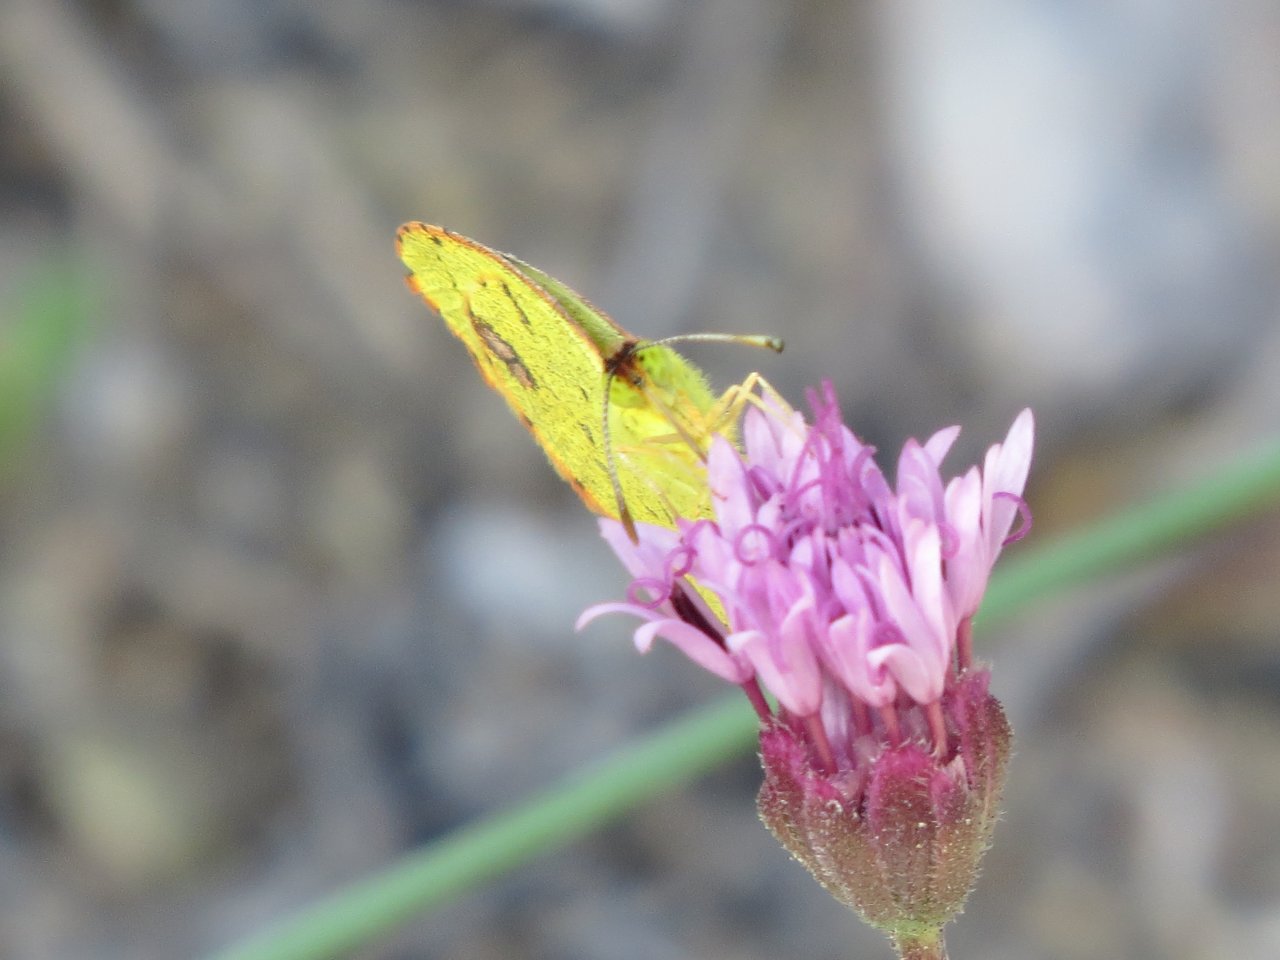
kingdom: Animalia
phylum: Arthropoda
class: Insecta
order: Lepidoptera
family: Pieridae
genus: Pyrisitia
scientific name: Pyrisitia lisa
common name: Little Yellow
